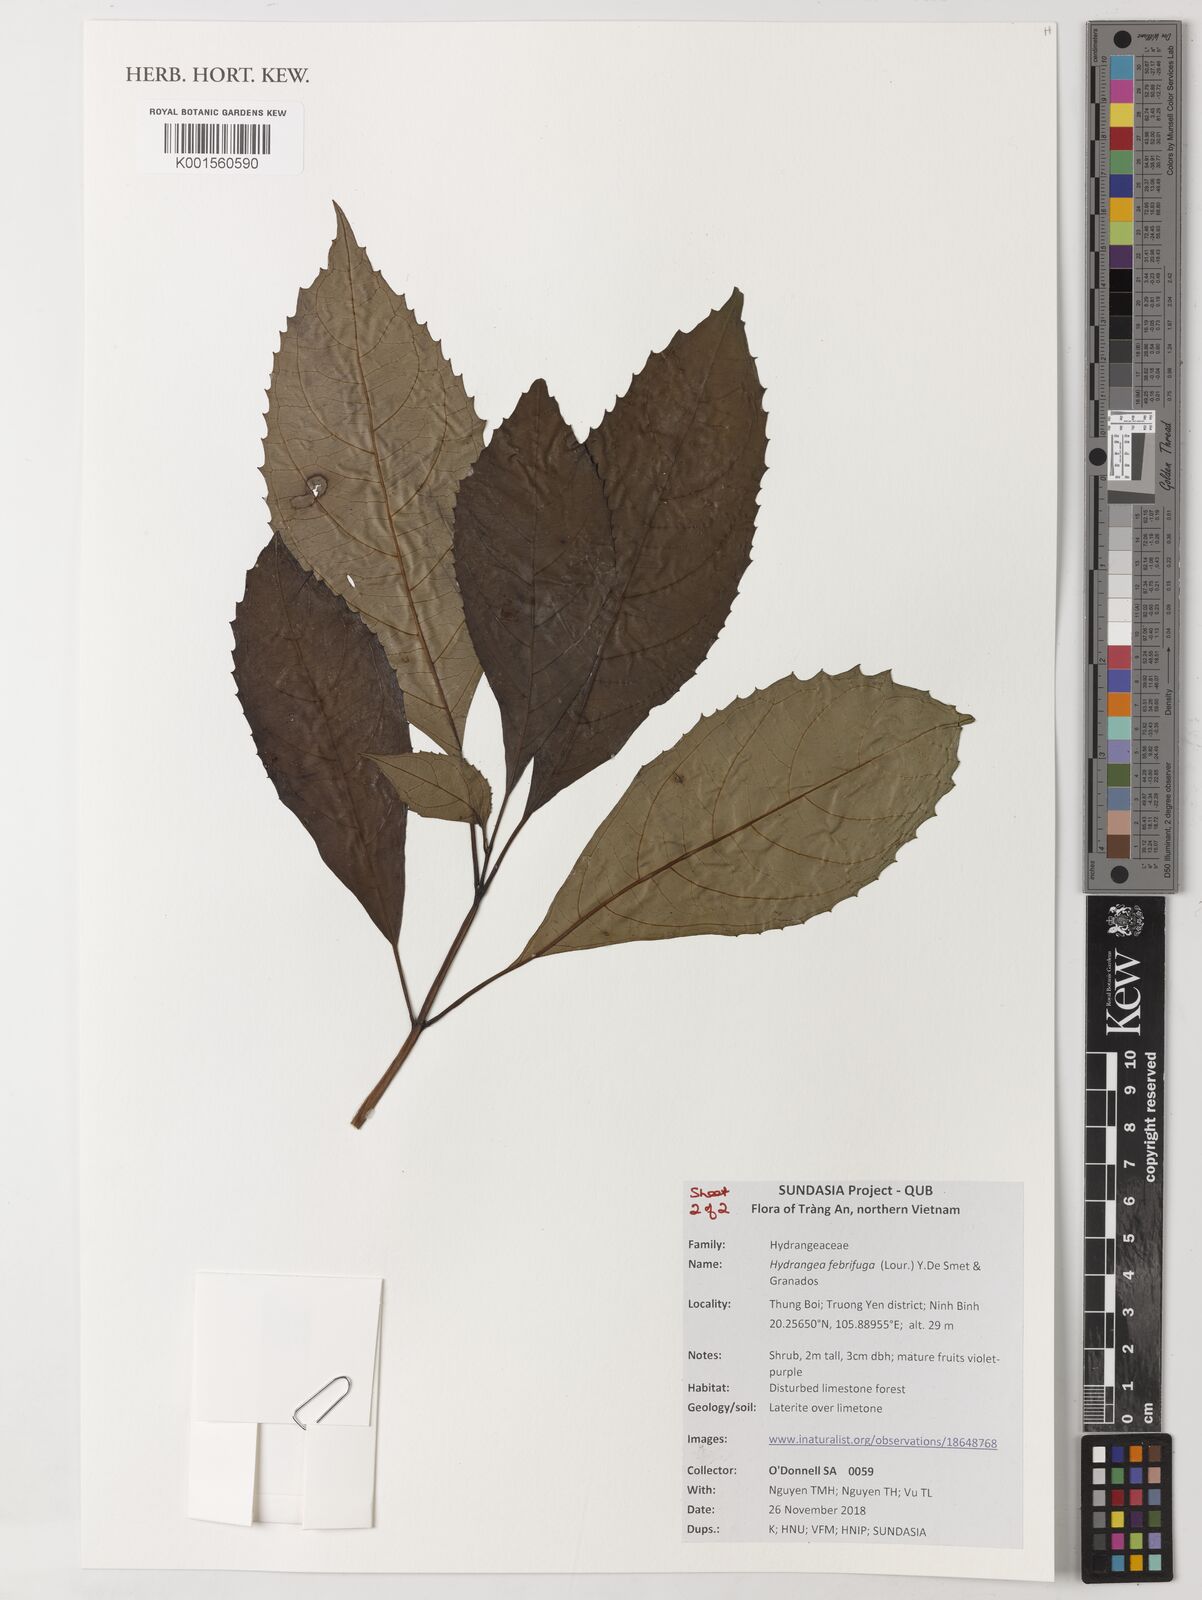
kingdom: Plantae
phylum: Tracheophyta
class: Magnoliopsida
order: Cornales
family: Hydrangeaceae
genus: Hydrangea
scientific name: Hydrangea febrifuga
